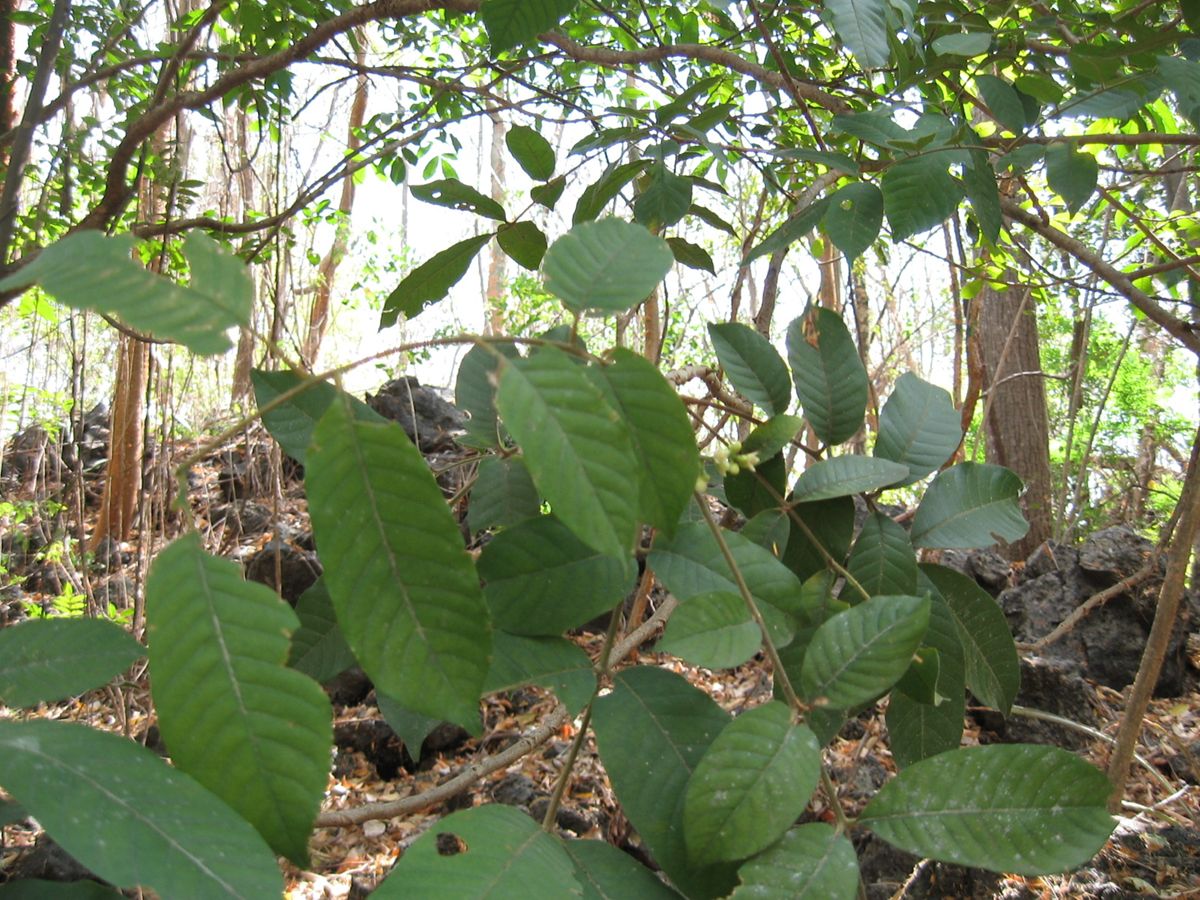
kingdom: Plantae
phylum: Tracheophyta
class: Magnoliopsida
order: Sapindales
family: Meliaceae
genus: Trichilia
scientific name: Trichilia martiana
